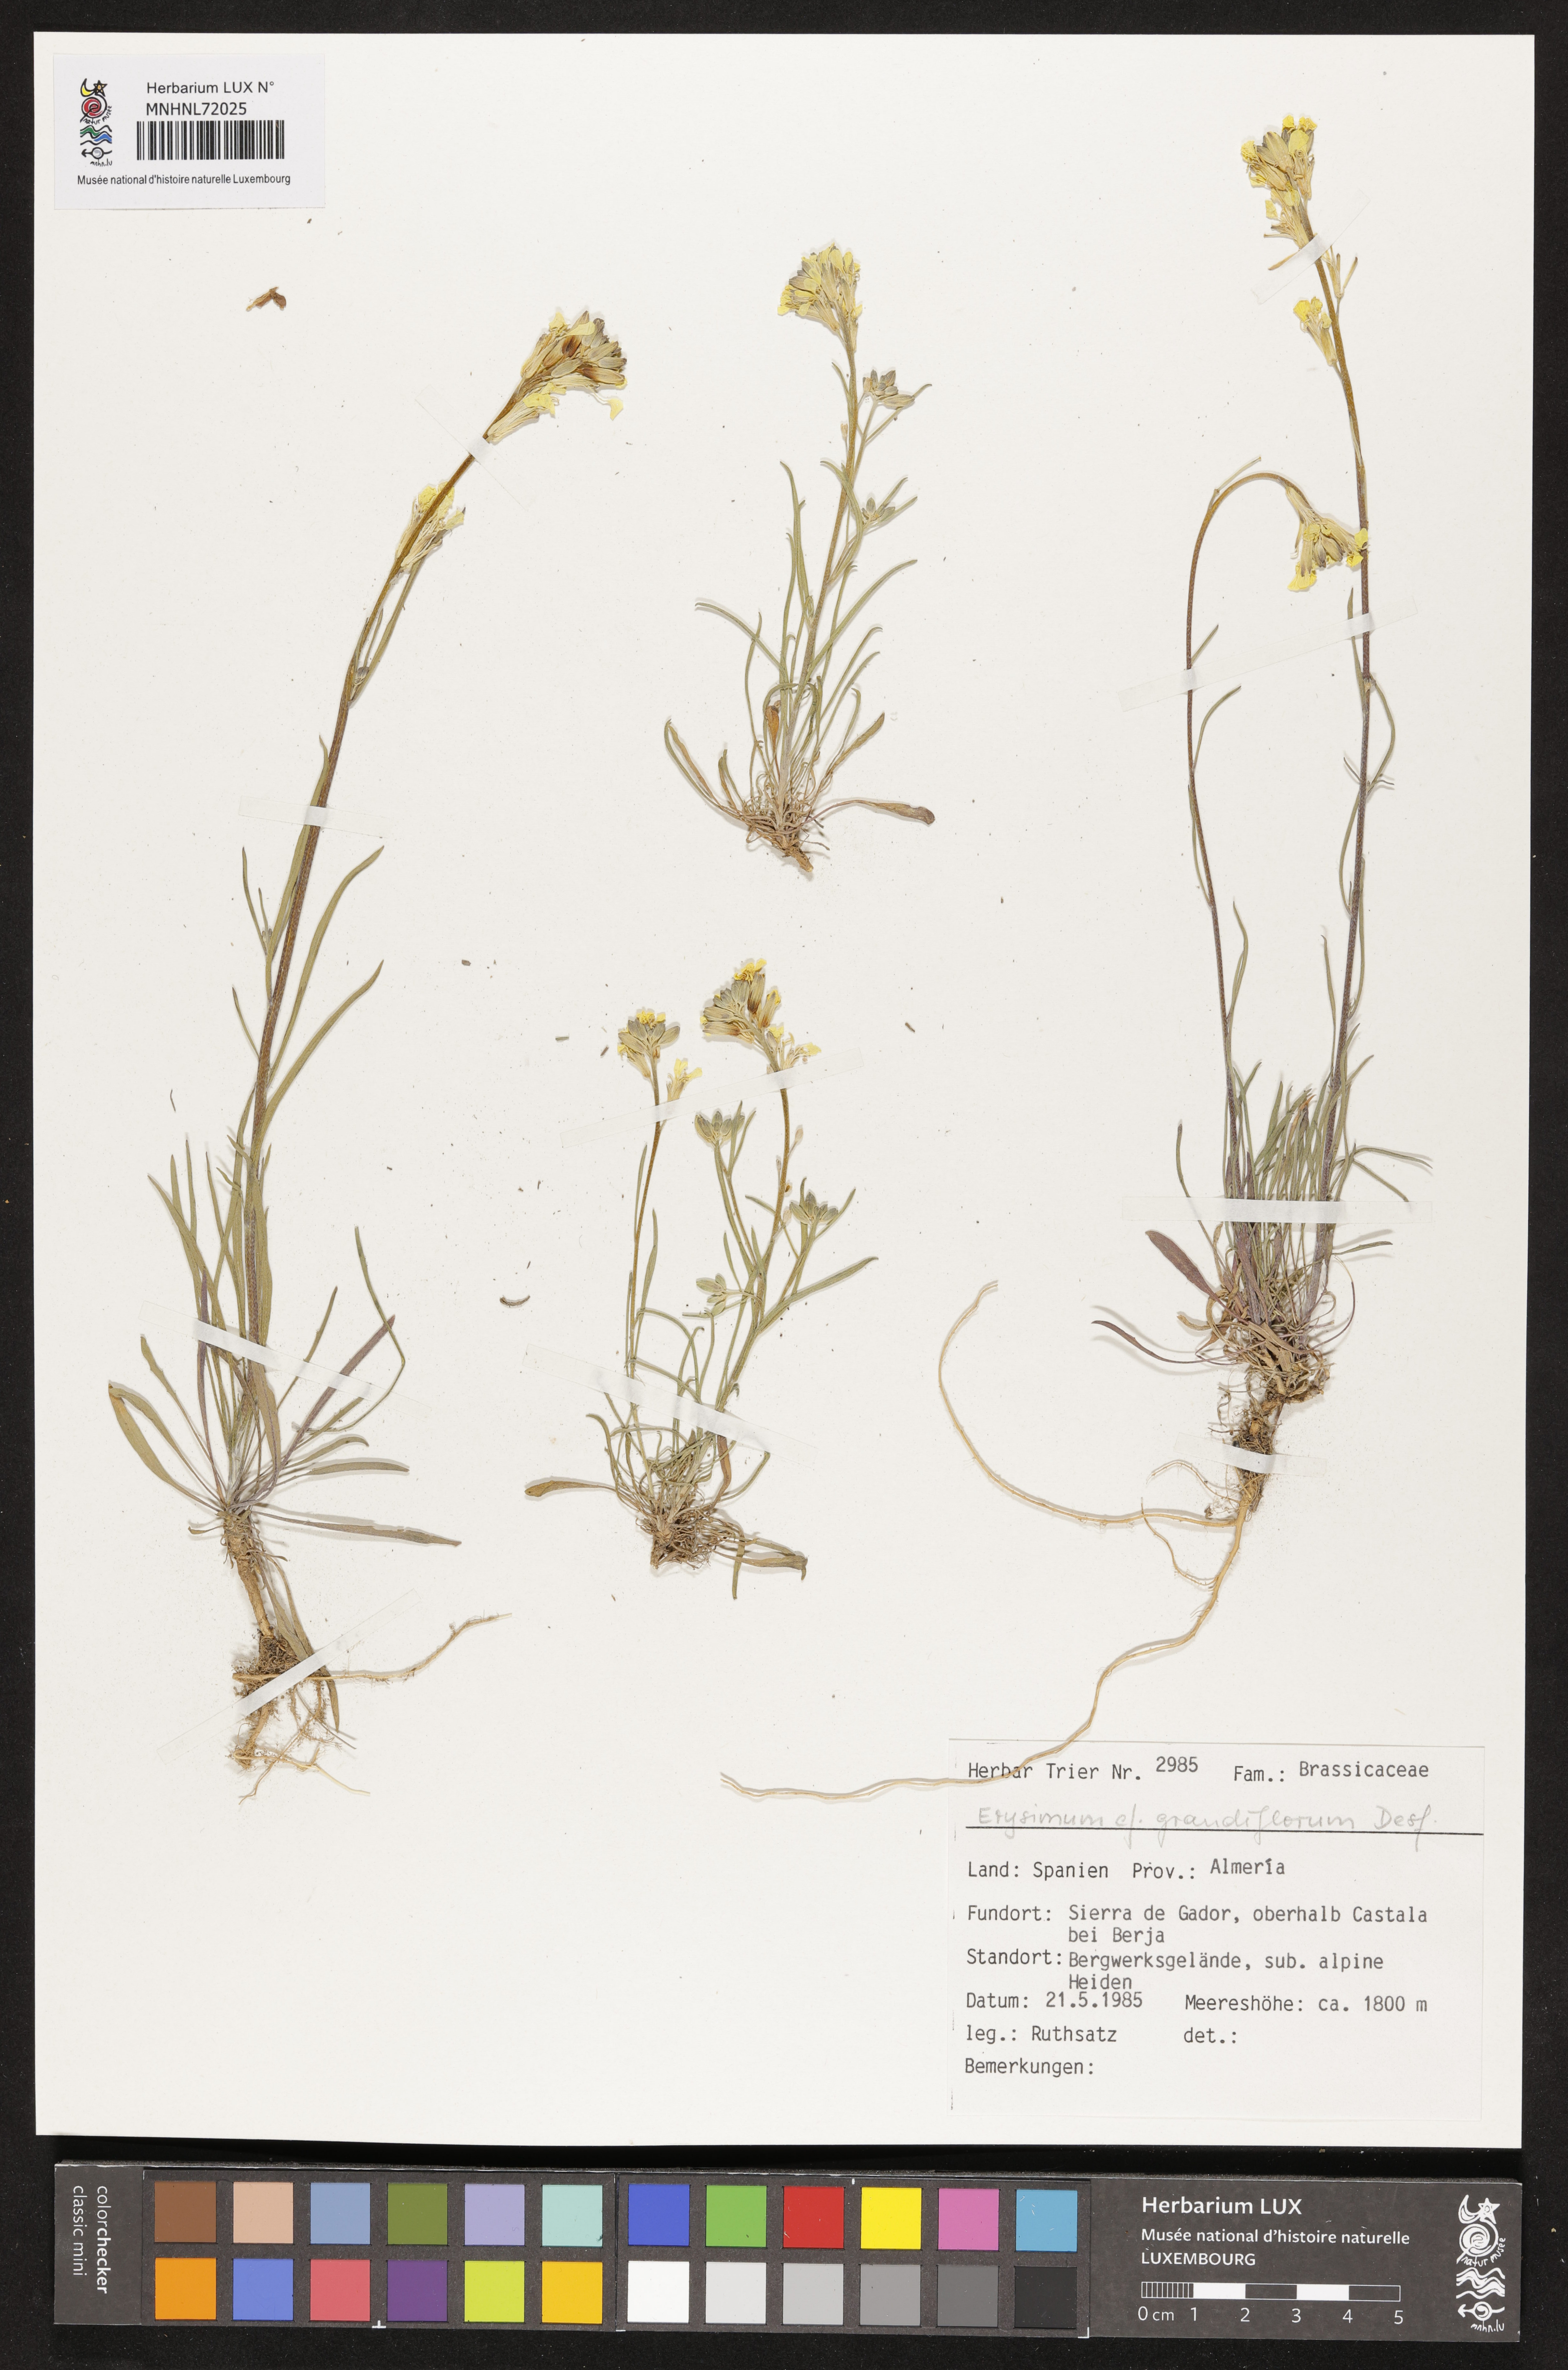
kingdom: Plantae
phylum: Tracheophyta
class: Magnoliopsida
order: Brassicales
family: Brassicaceae
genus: Erysimum
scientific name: Erysimum duriaei
